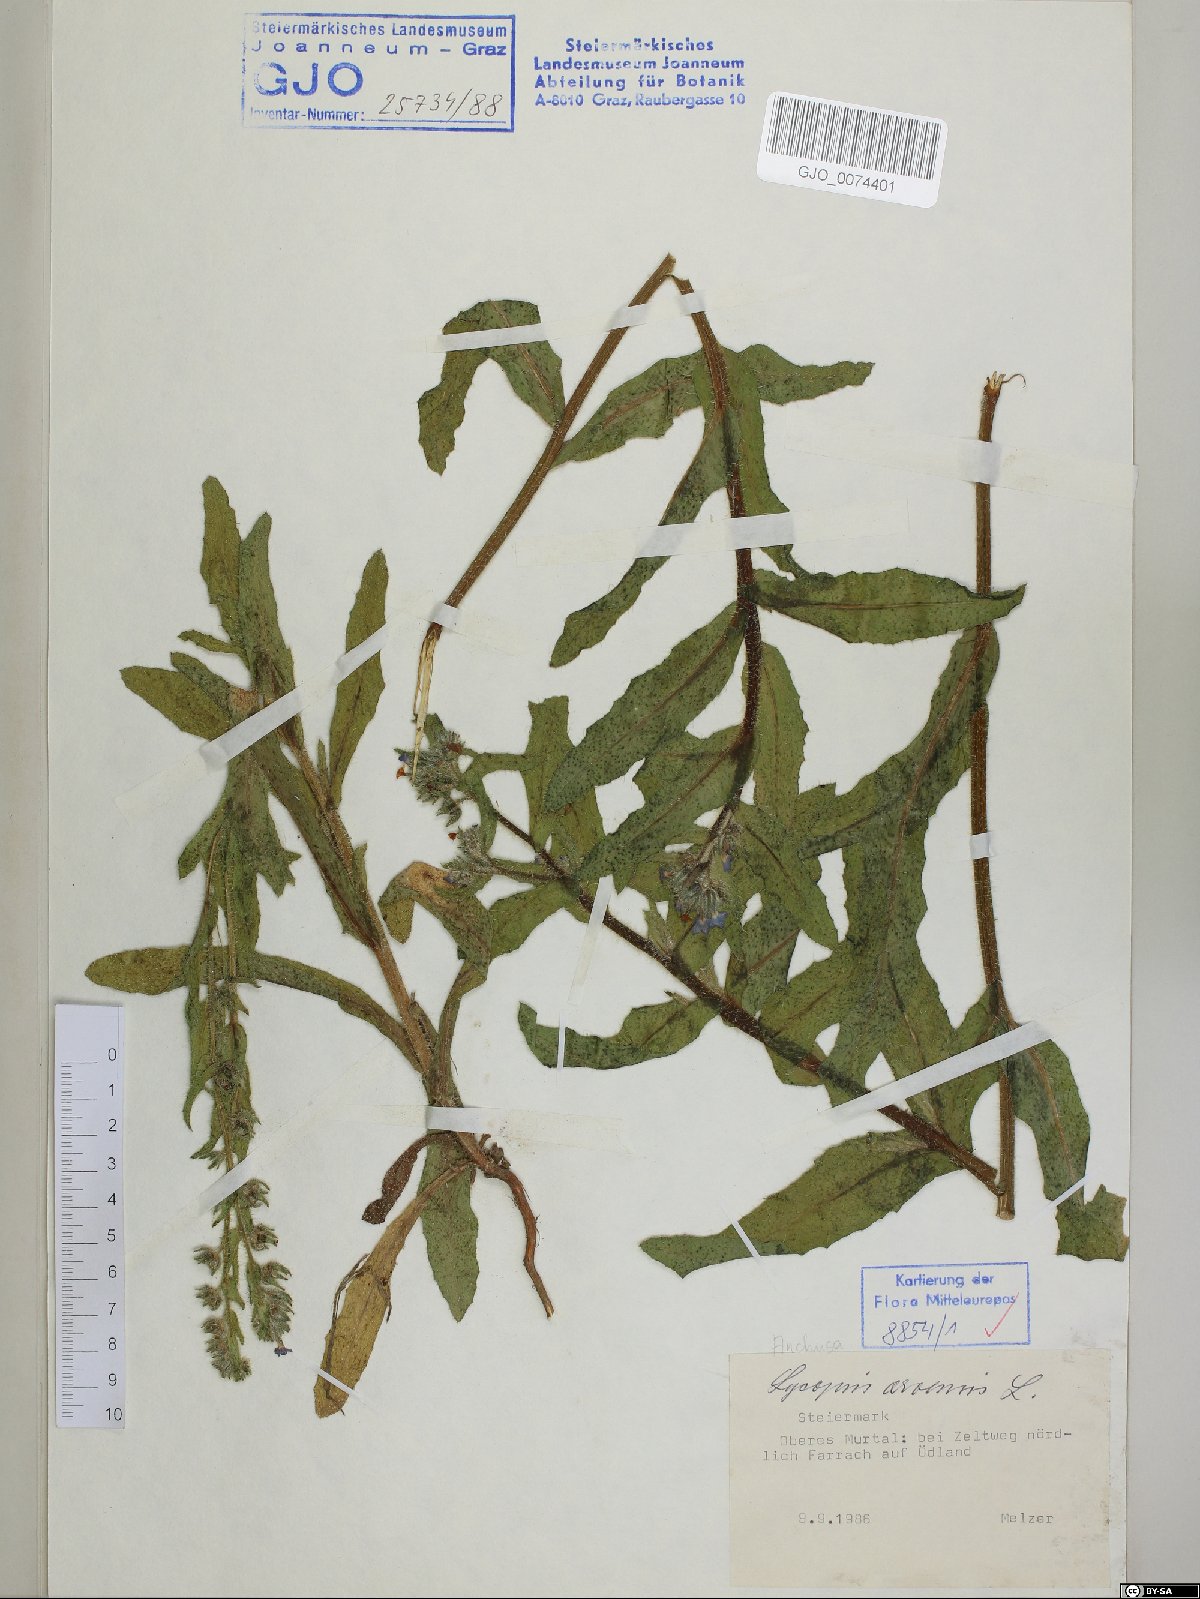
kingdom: Plantae
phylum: Tracheophyta
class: Magnoliopsida
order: Boraginales
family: Boraginaceae
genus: Lycopsis
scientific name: Lycopsis arvensis
